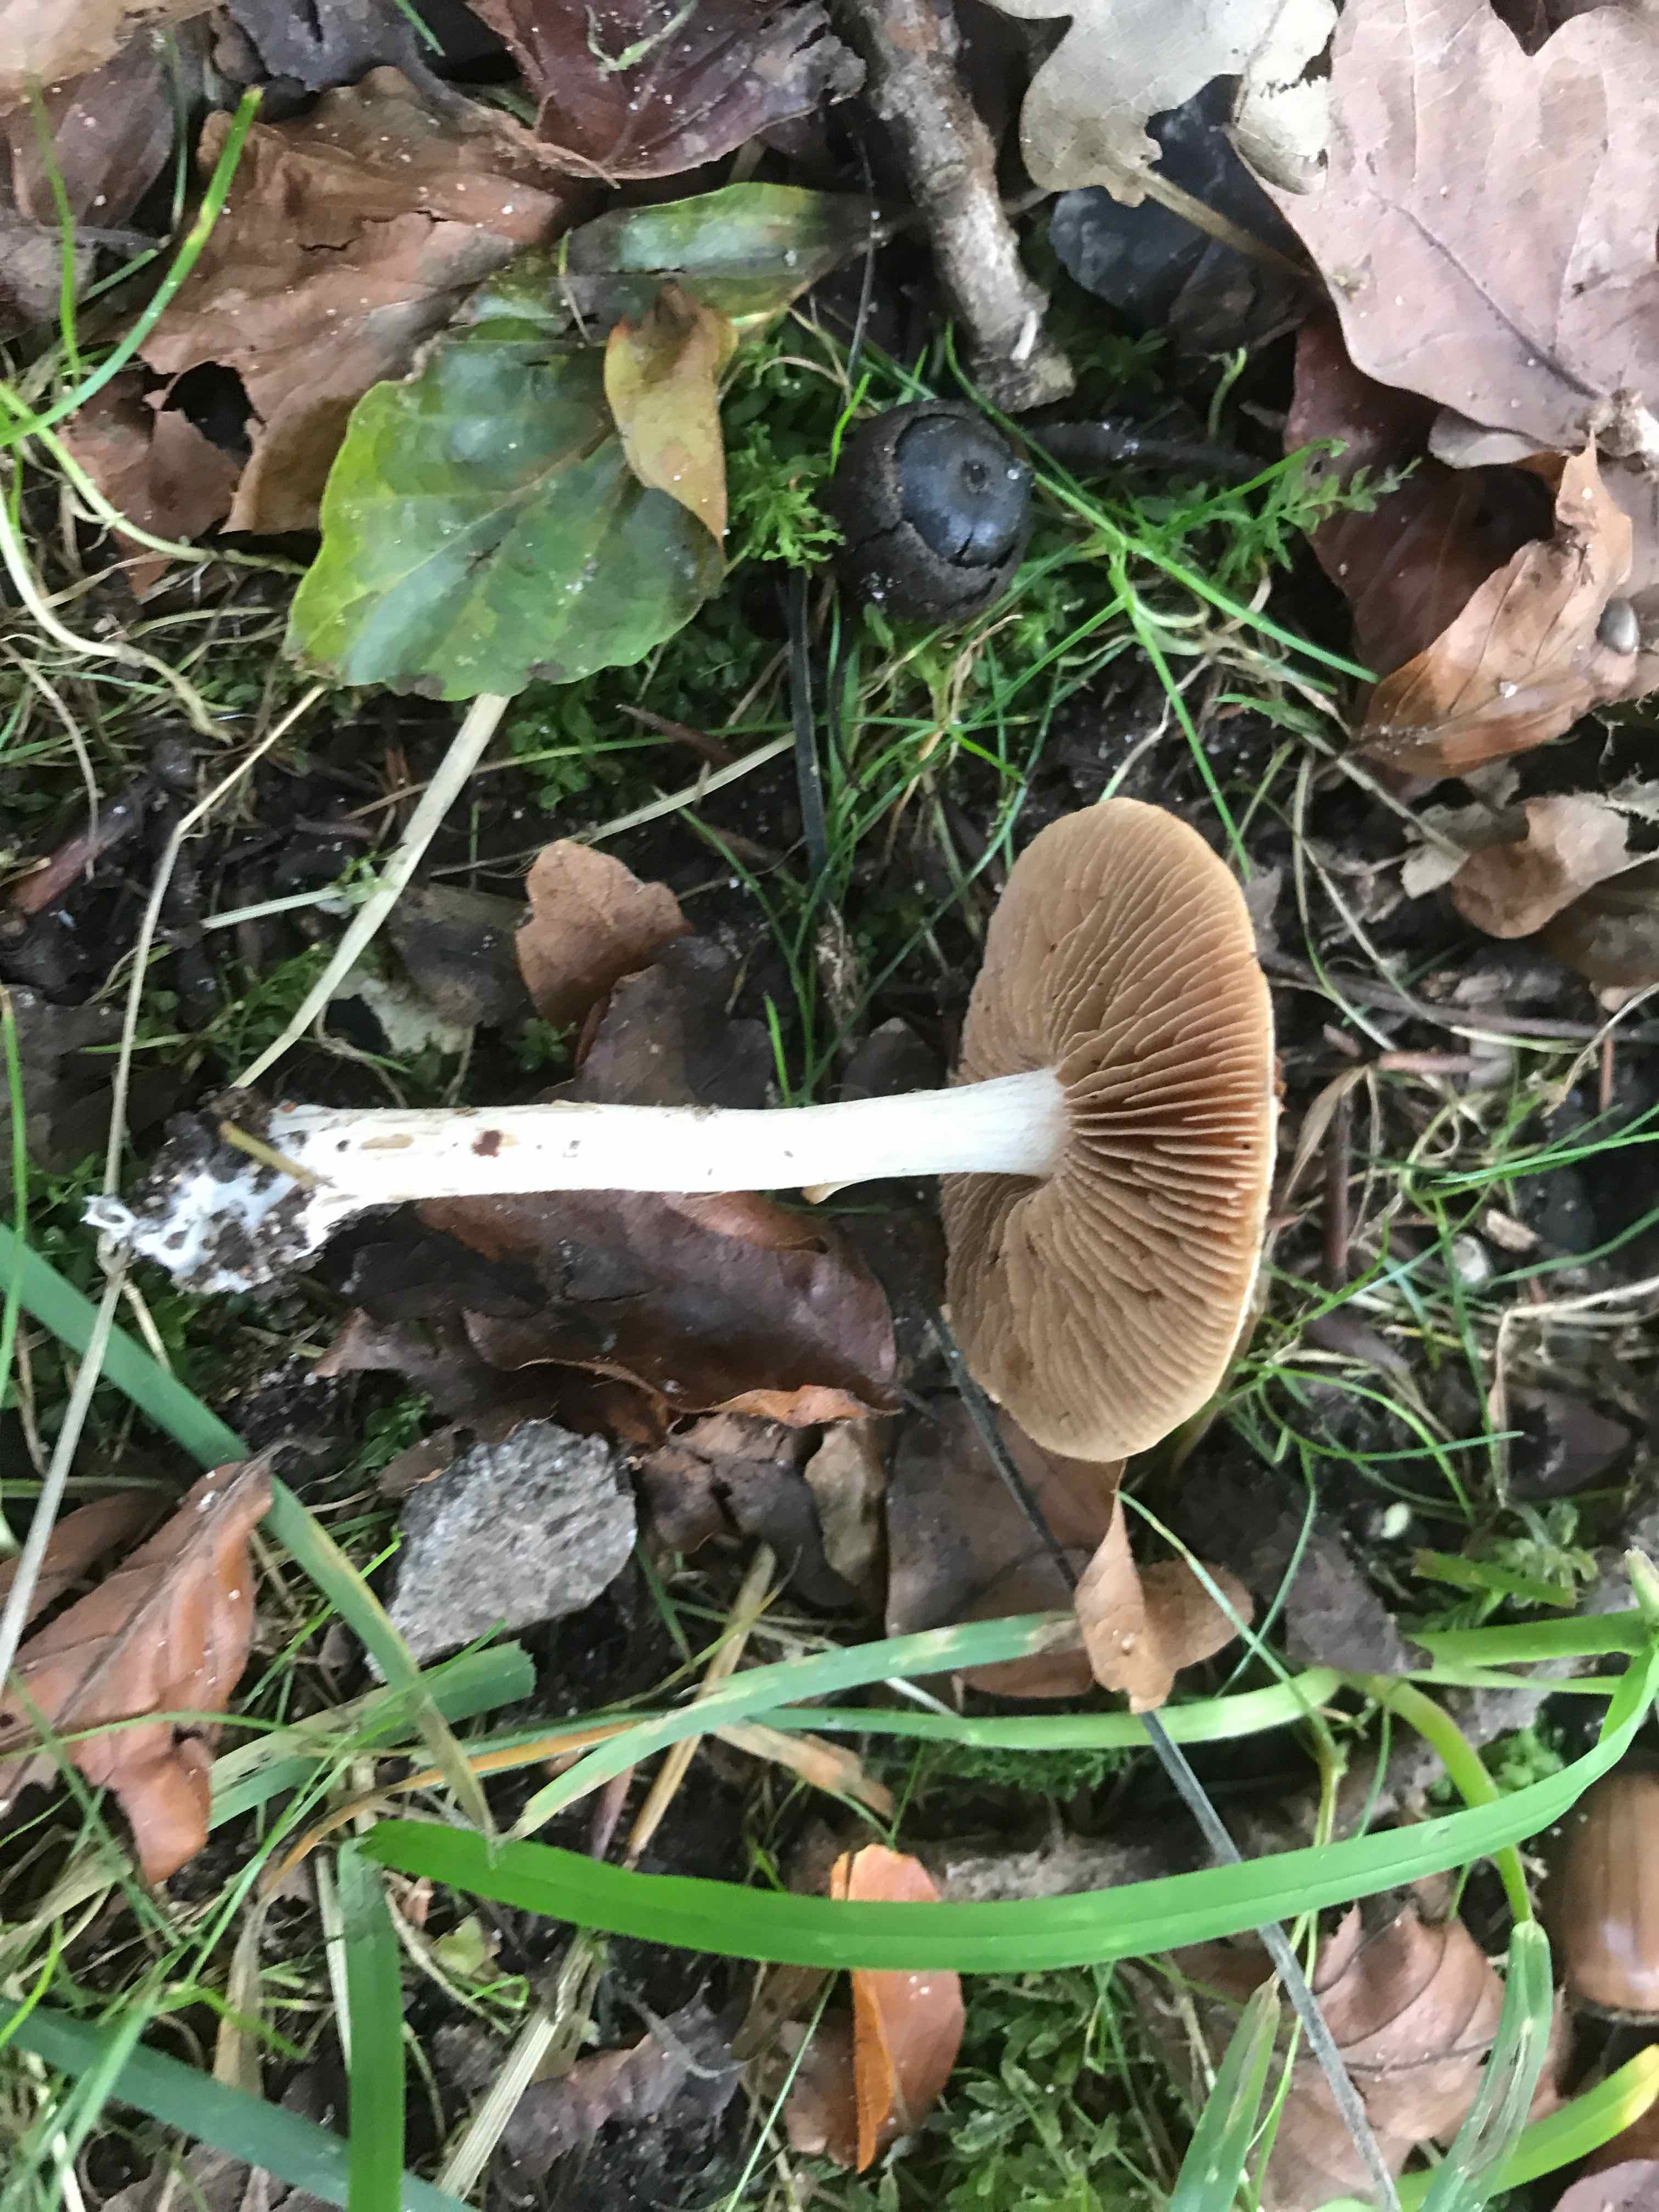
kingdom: Fungi
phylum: Basidiomycota
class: Agaricomycetes
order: Agaricales
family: Hymenogastraceae
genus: Hebeloma
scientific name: Hebeloma
